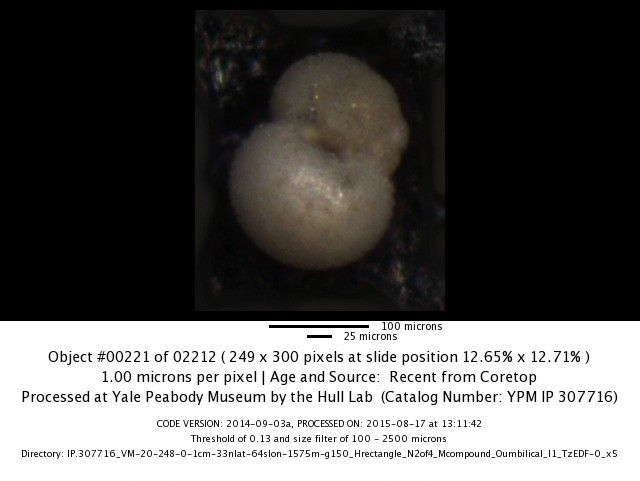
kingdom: Chromista
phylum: Foraminifera
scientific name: Foraminifera
